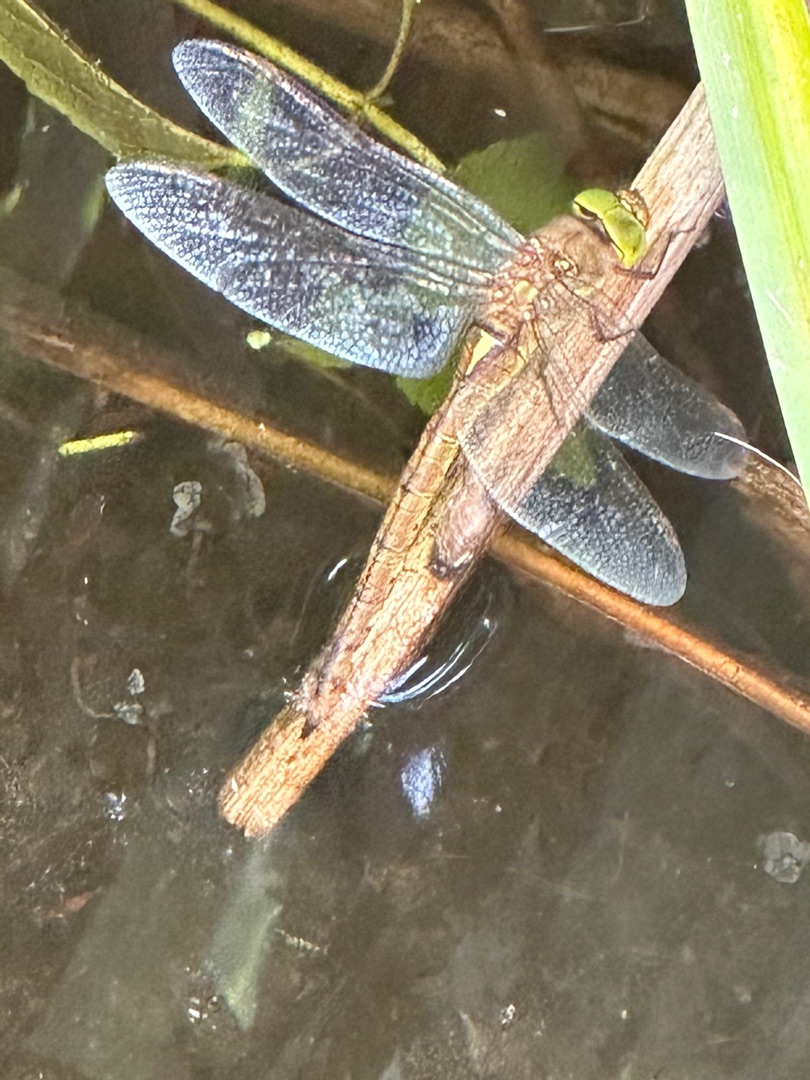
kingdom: Animalia
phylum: Arthropoda
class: Insecta
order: Odonata
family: Aeshnidae
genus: Aeshna
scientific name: Aeshna isoceles
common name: Kileplet-mosaikguldsmed
